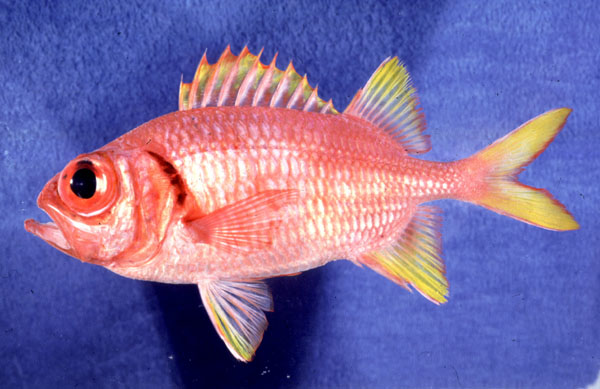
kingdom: Animalia
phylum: Chordata
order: Beryciformes
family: Holocentridae
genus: Myripristis
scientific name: Myripristis chryseres
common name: Golden-finned squirrelfish
